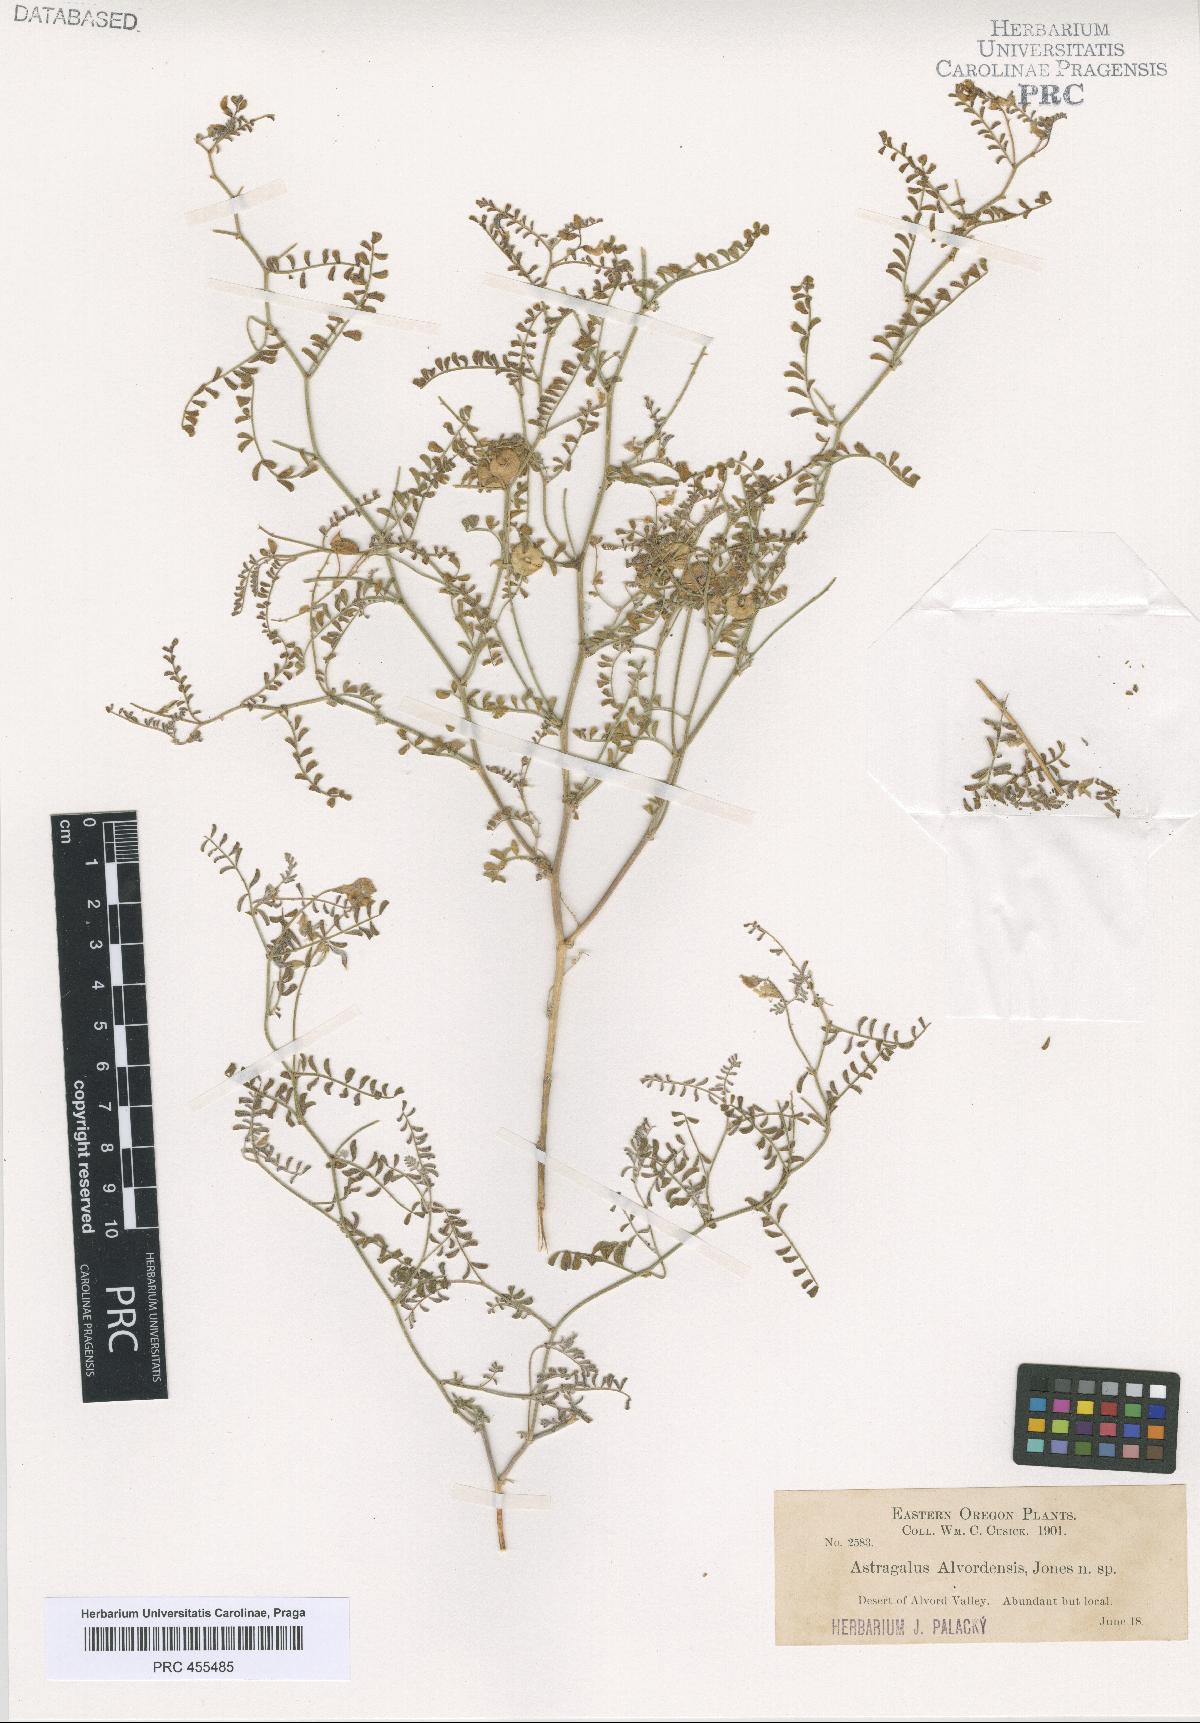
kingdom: Plantae
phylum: Tracheophyta
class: Magnoliopsida
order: Fabales
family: Fabaceae
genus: Astragalus
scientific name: Astragalus alvordensis
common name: Alvord milk-vetch
